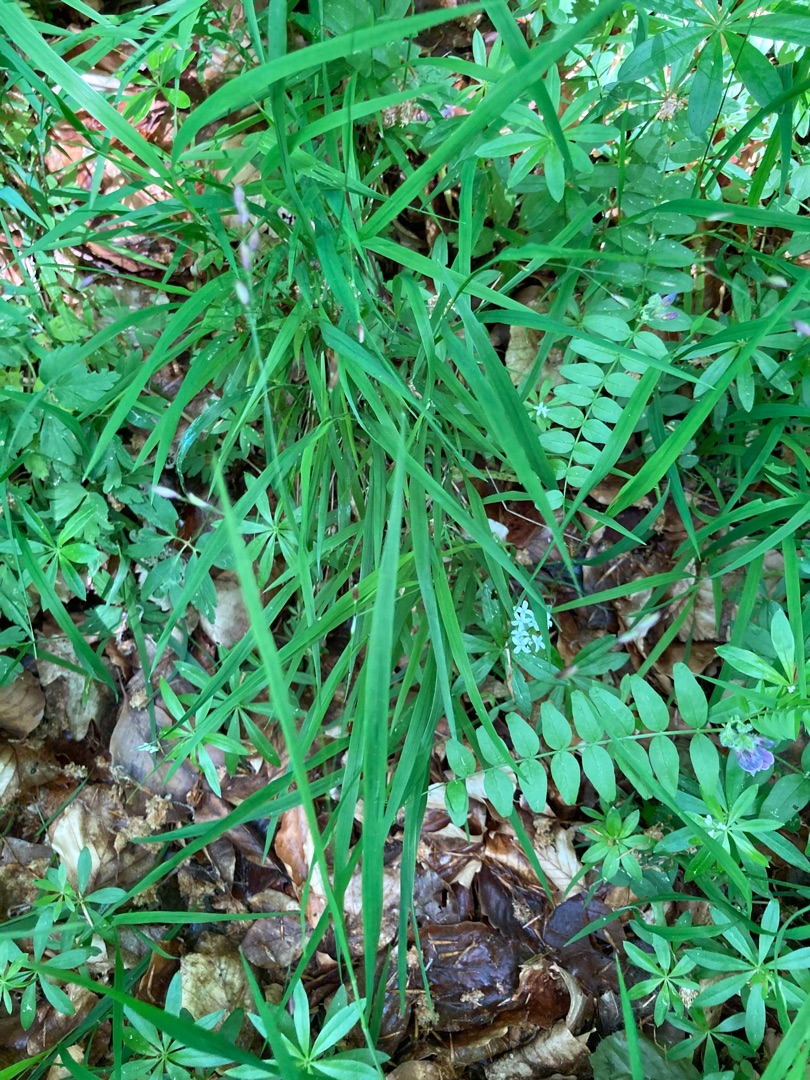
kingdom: Plantae
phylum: Tracheophyta
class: Liliopsida
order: Poales
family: Poaceae
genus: Melica
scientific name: Melica uniflora
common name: Enblomstret flitteraks
